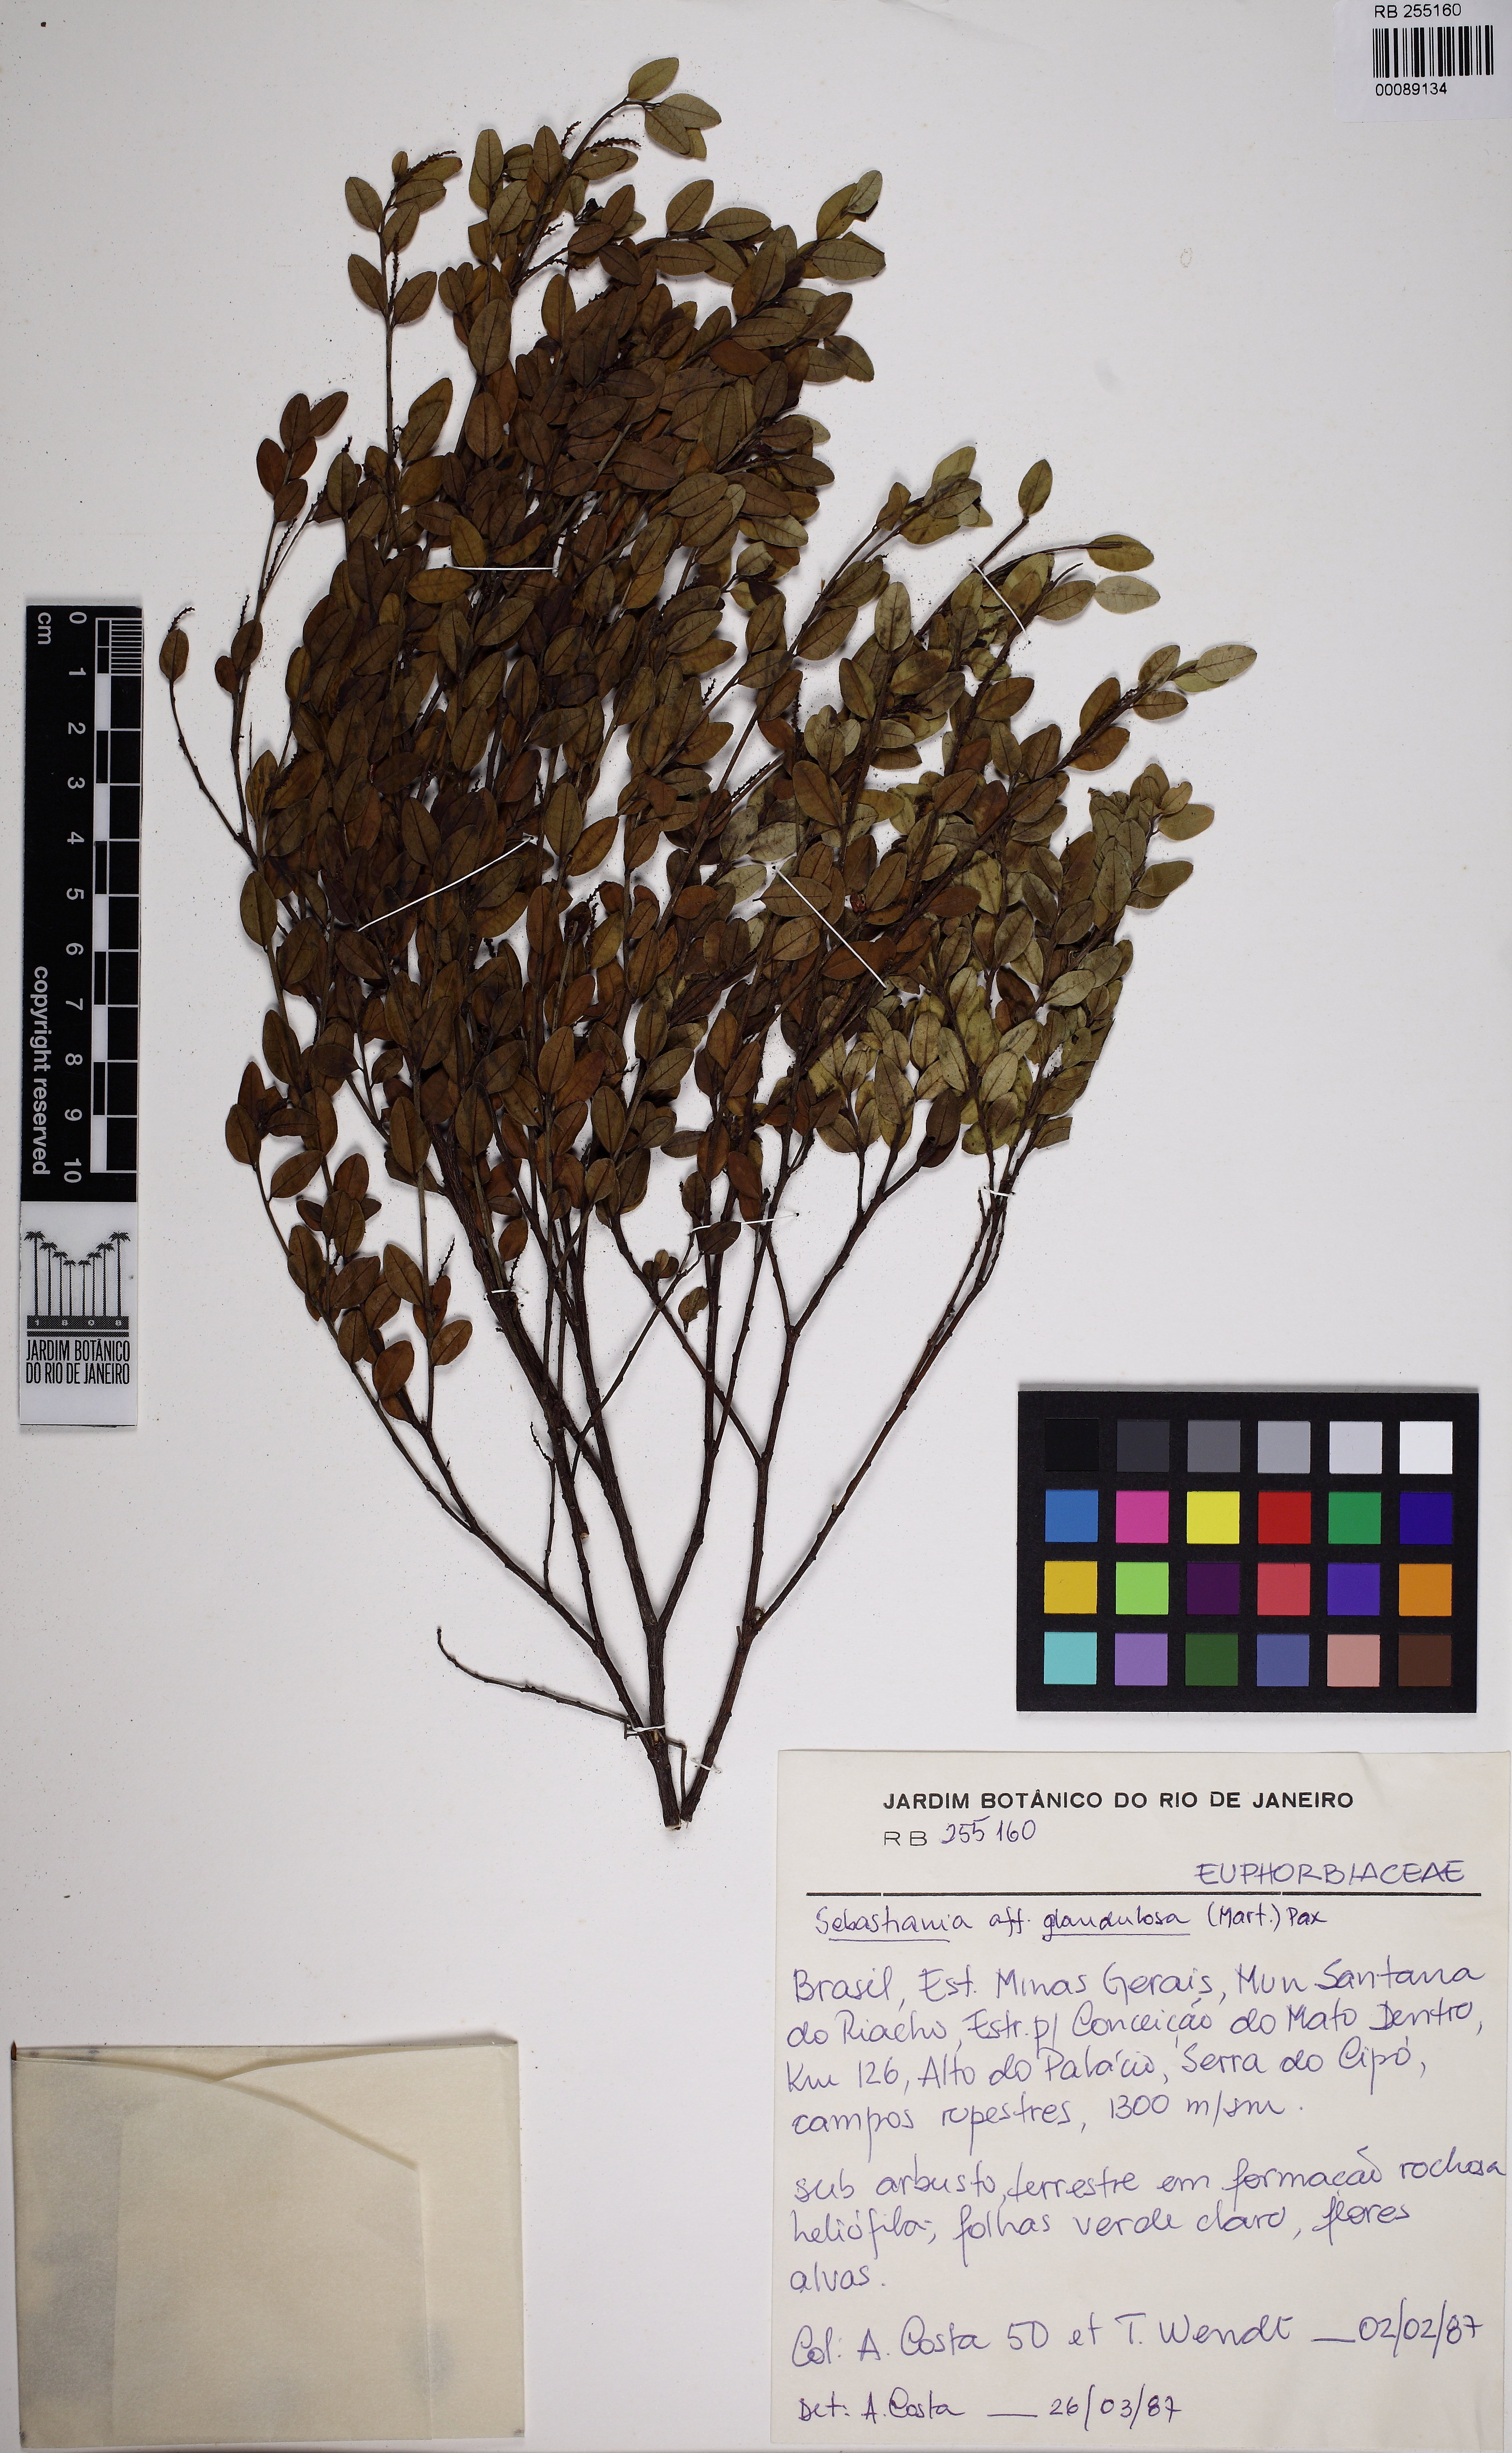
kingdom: Plantae
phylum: Tracheophyta
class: Magnoliopsida
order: Malpighiales
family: Euphorbiaceae
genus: Microstachys
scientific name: Microstachys corniculata
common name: Hato tejas
